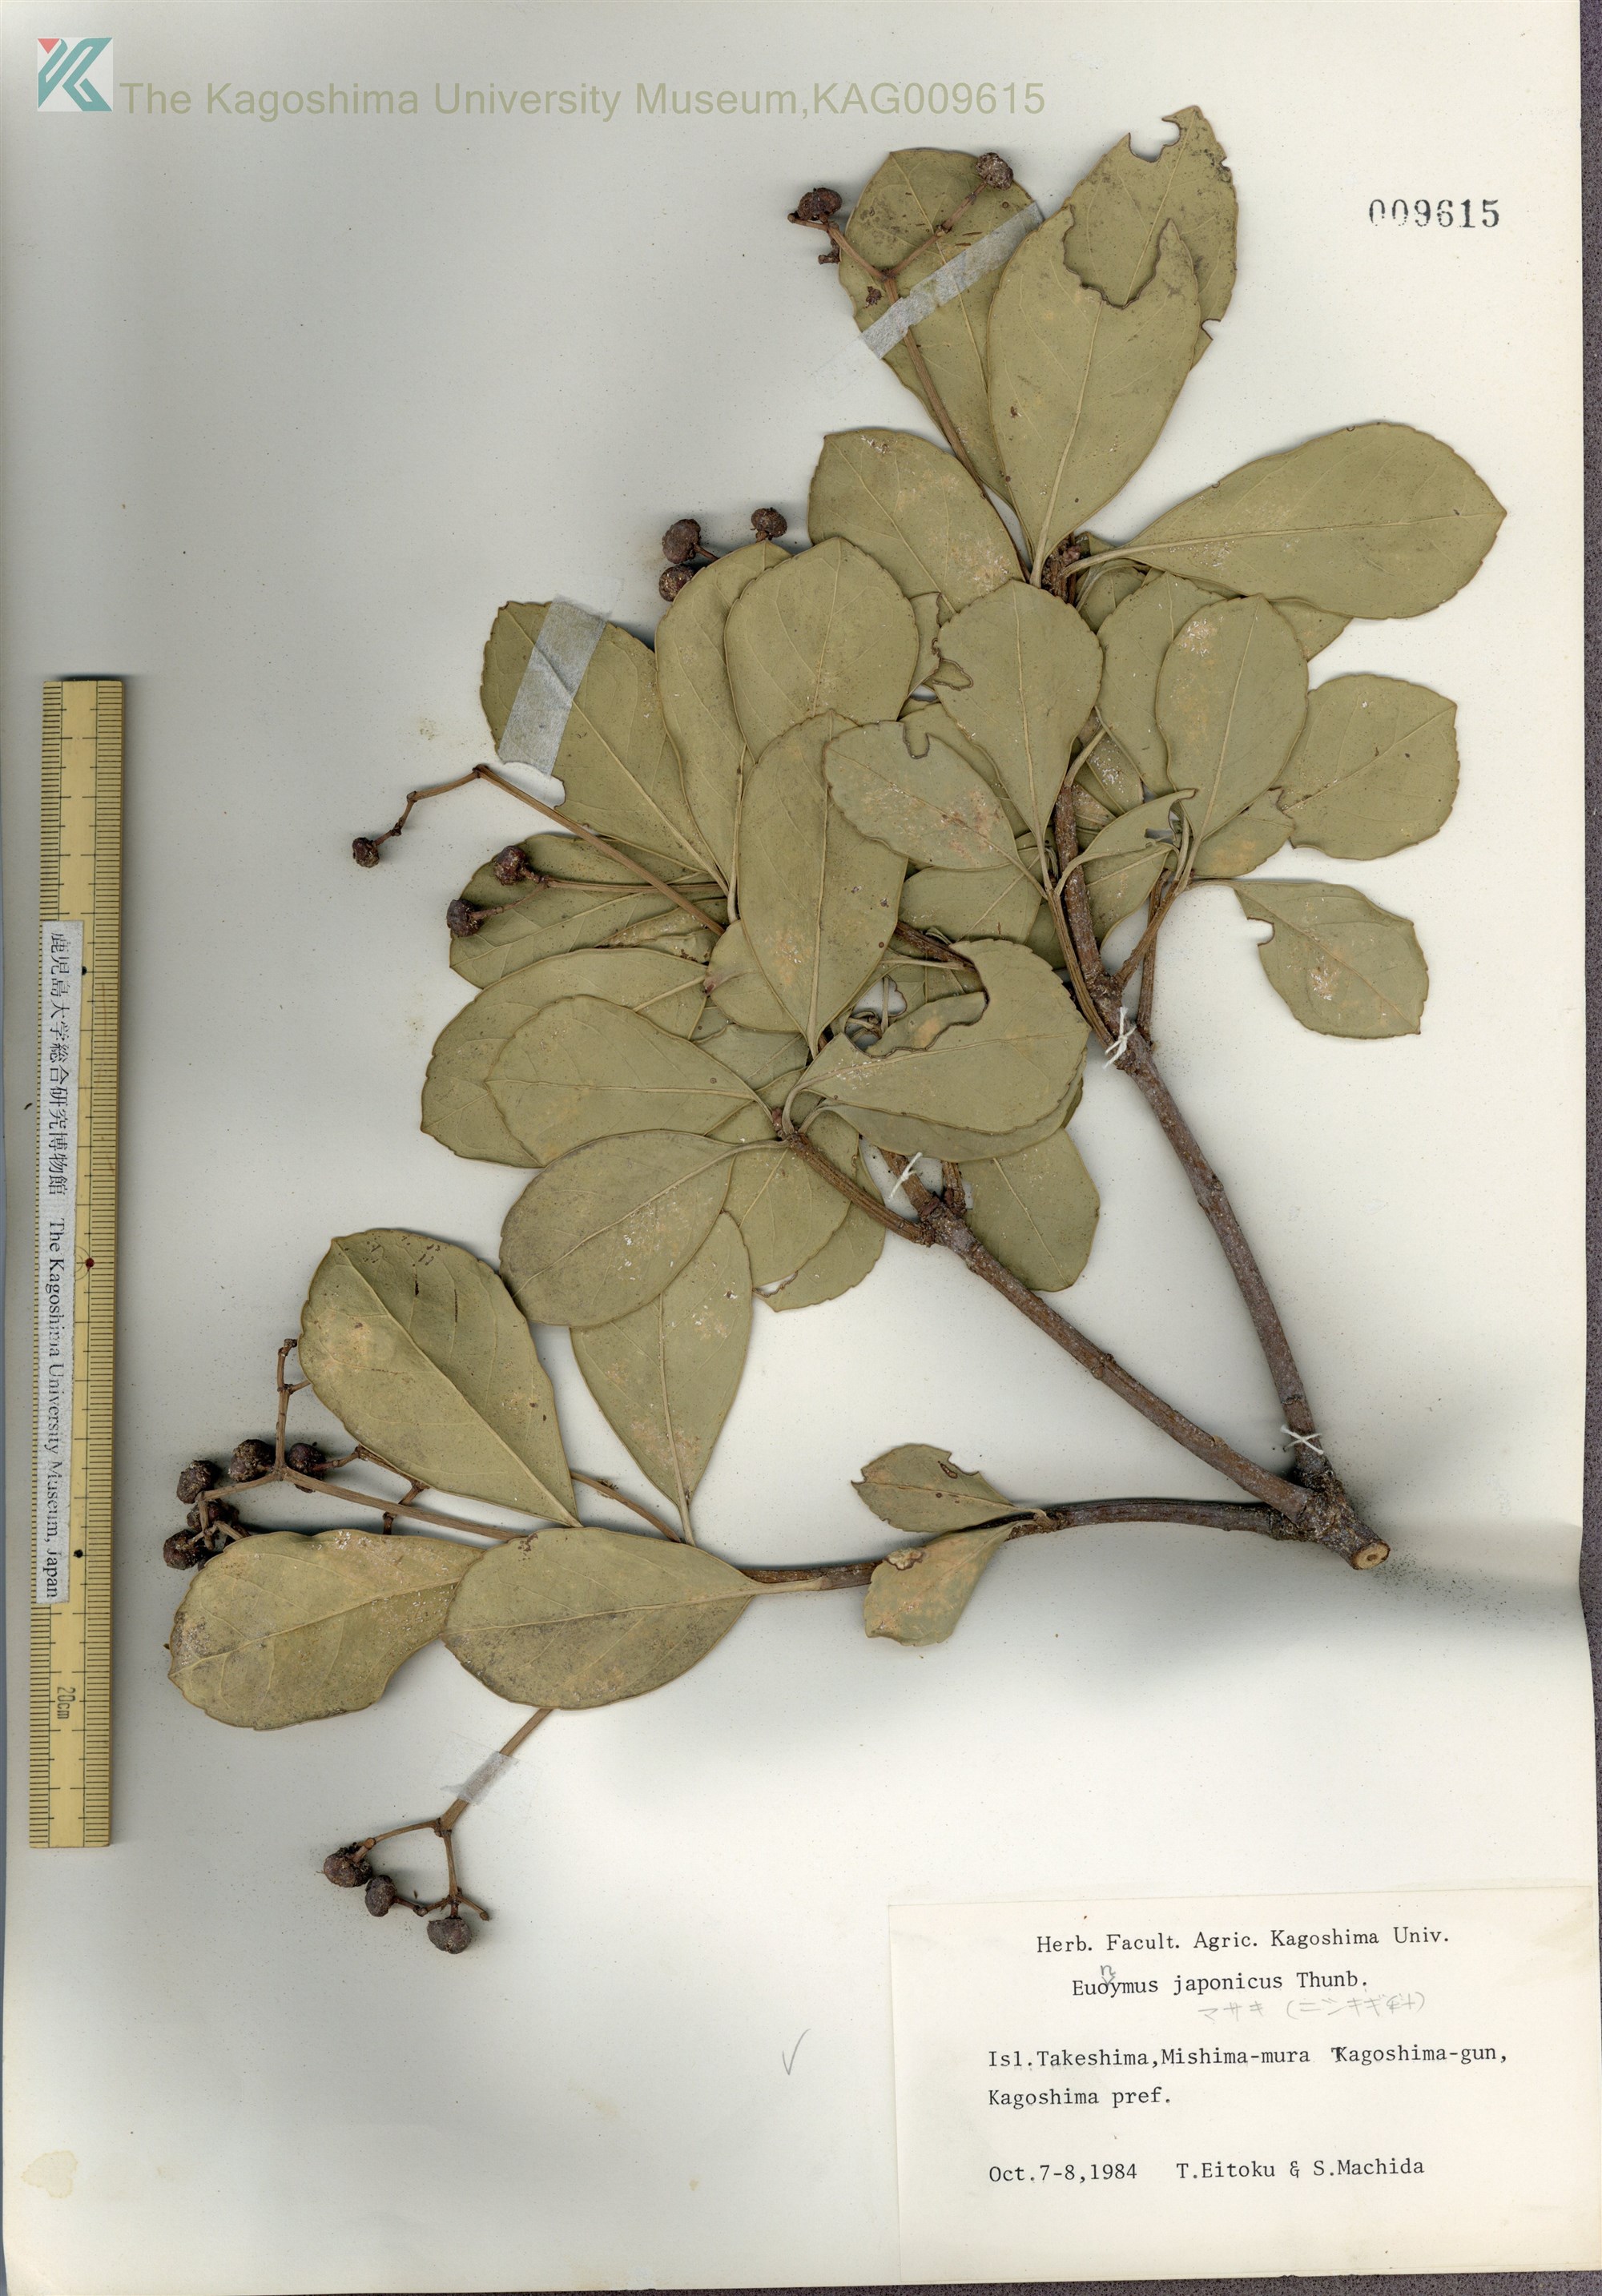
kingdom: Plantae
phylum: Tracheophyta
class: Magnoliopsida
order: Celastrales
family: Celastraceae
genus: Euonymus
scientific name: Euonymus japonicus
